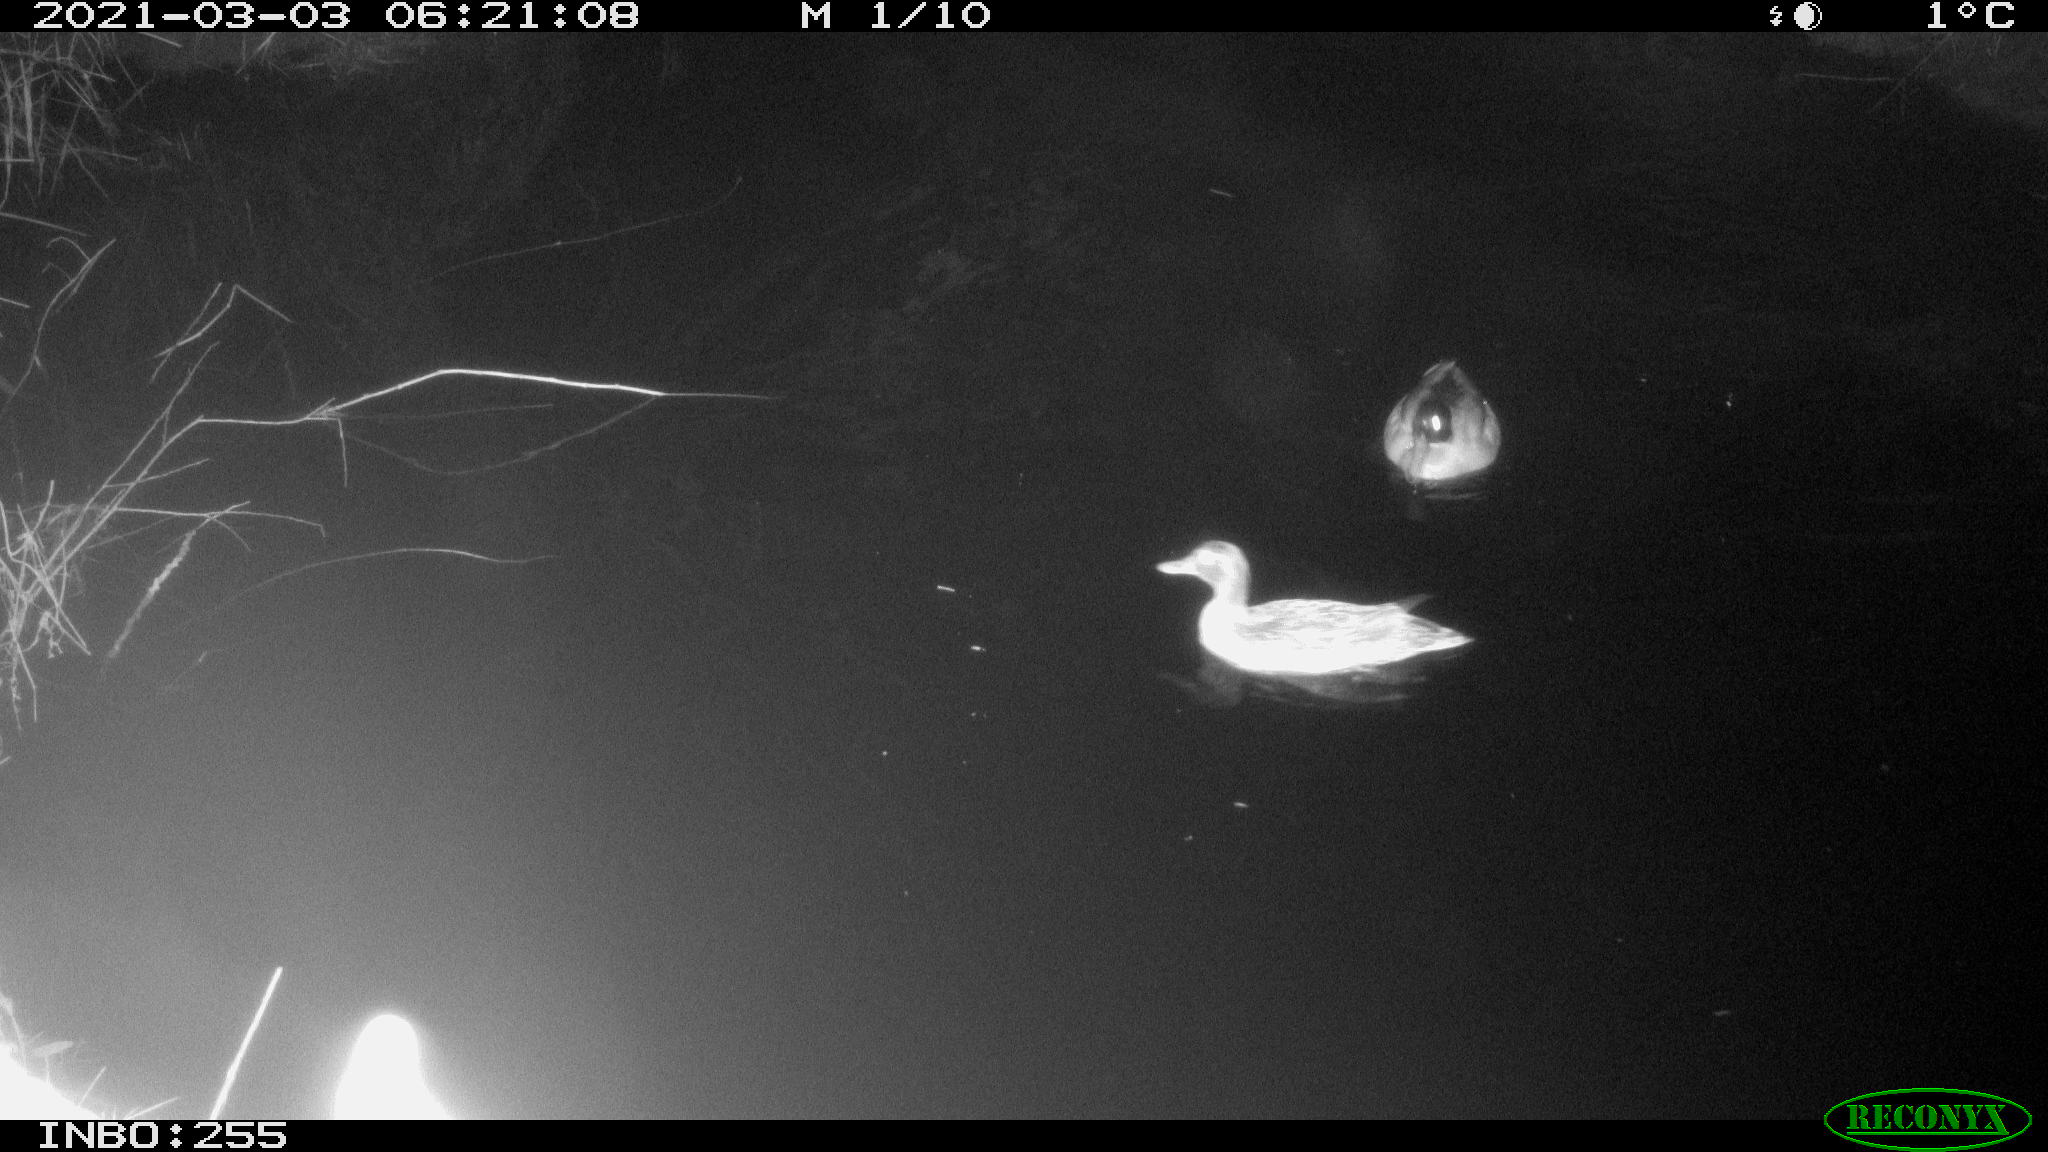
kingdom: Animalia
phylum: Chordata
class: Aves
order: Anseriformes
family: Anatidae
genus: Anas
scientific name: Anas platyrhynchos
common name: Mallard
